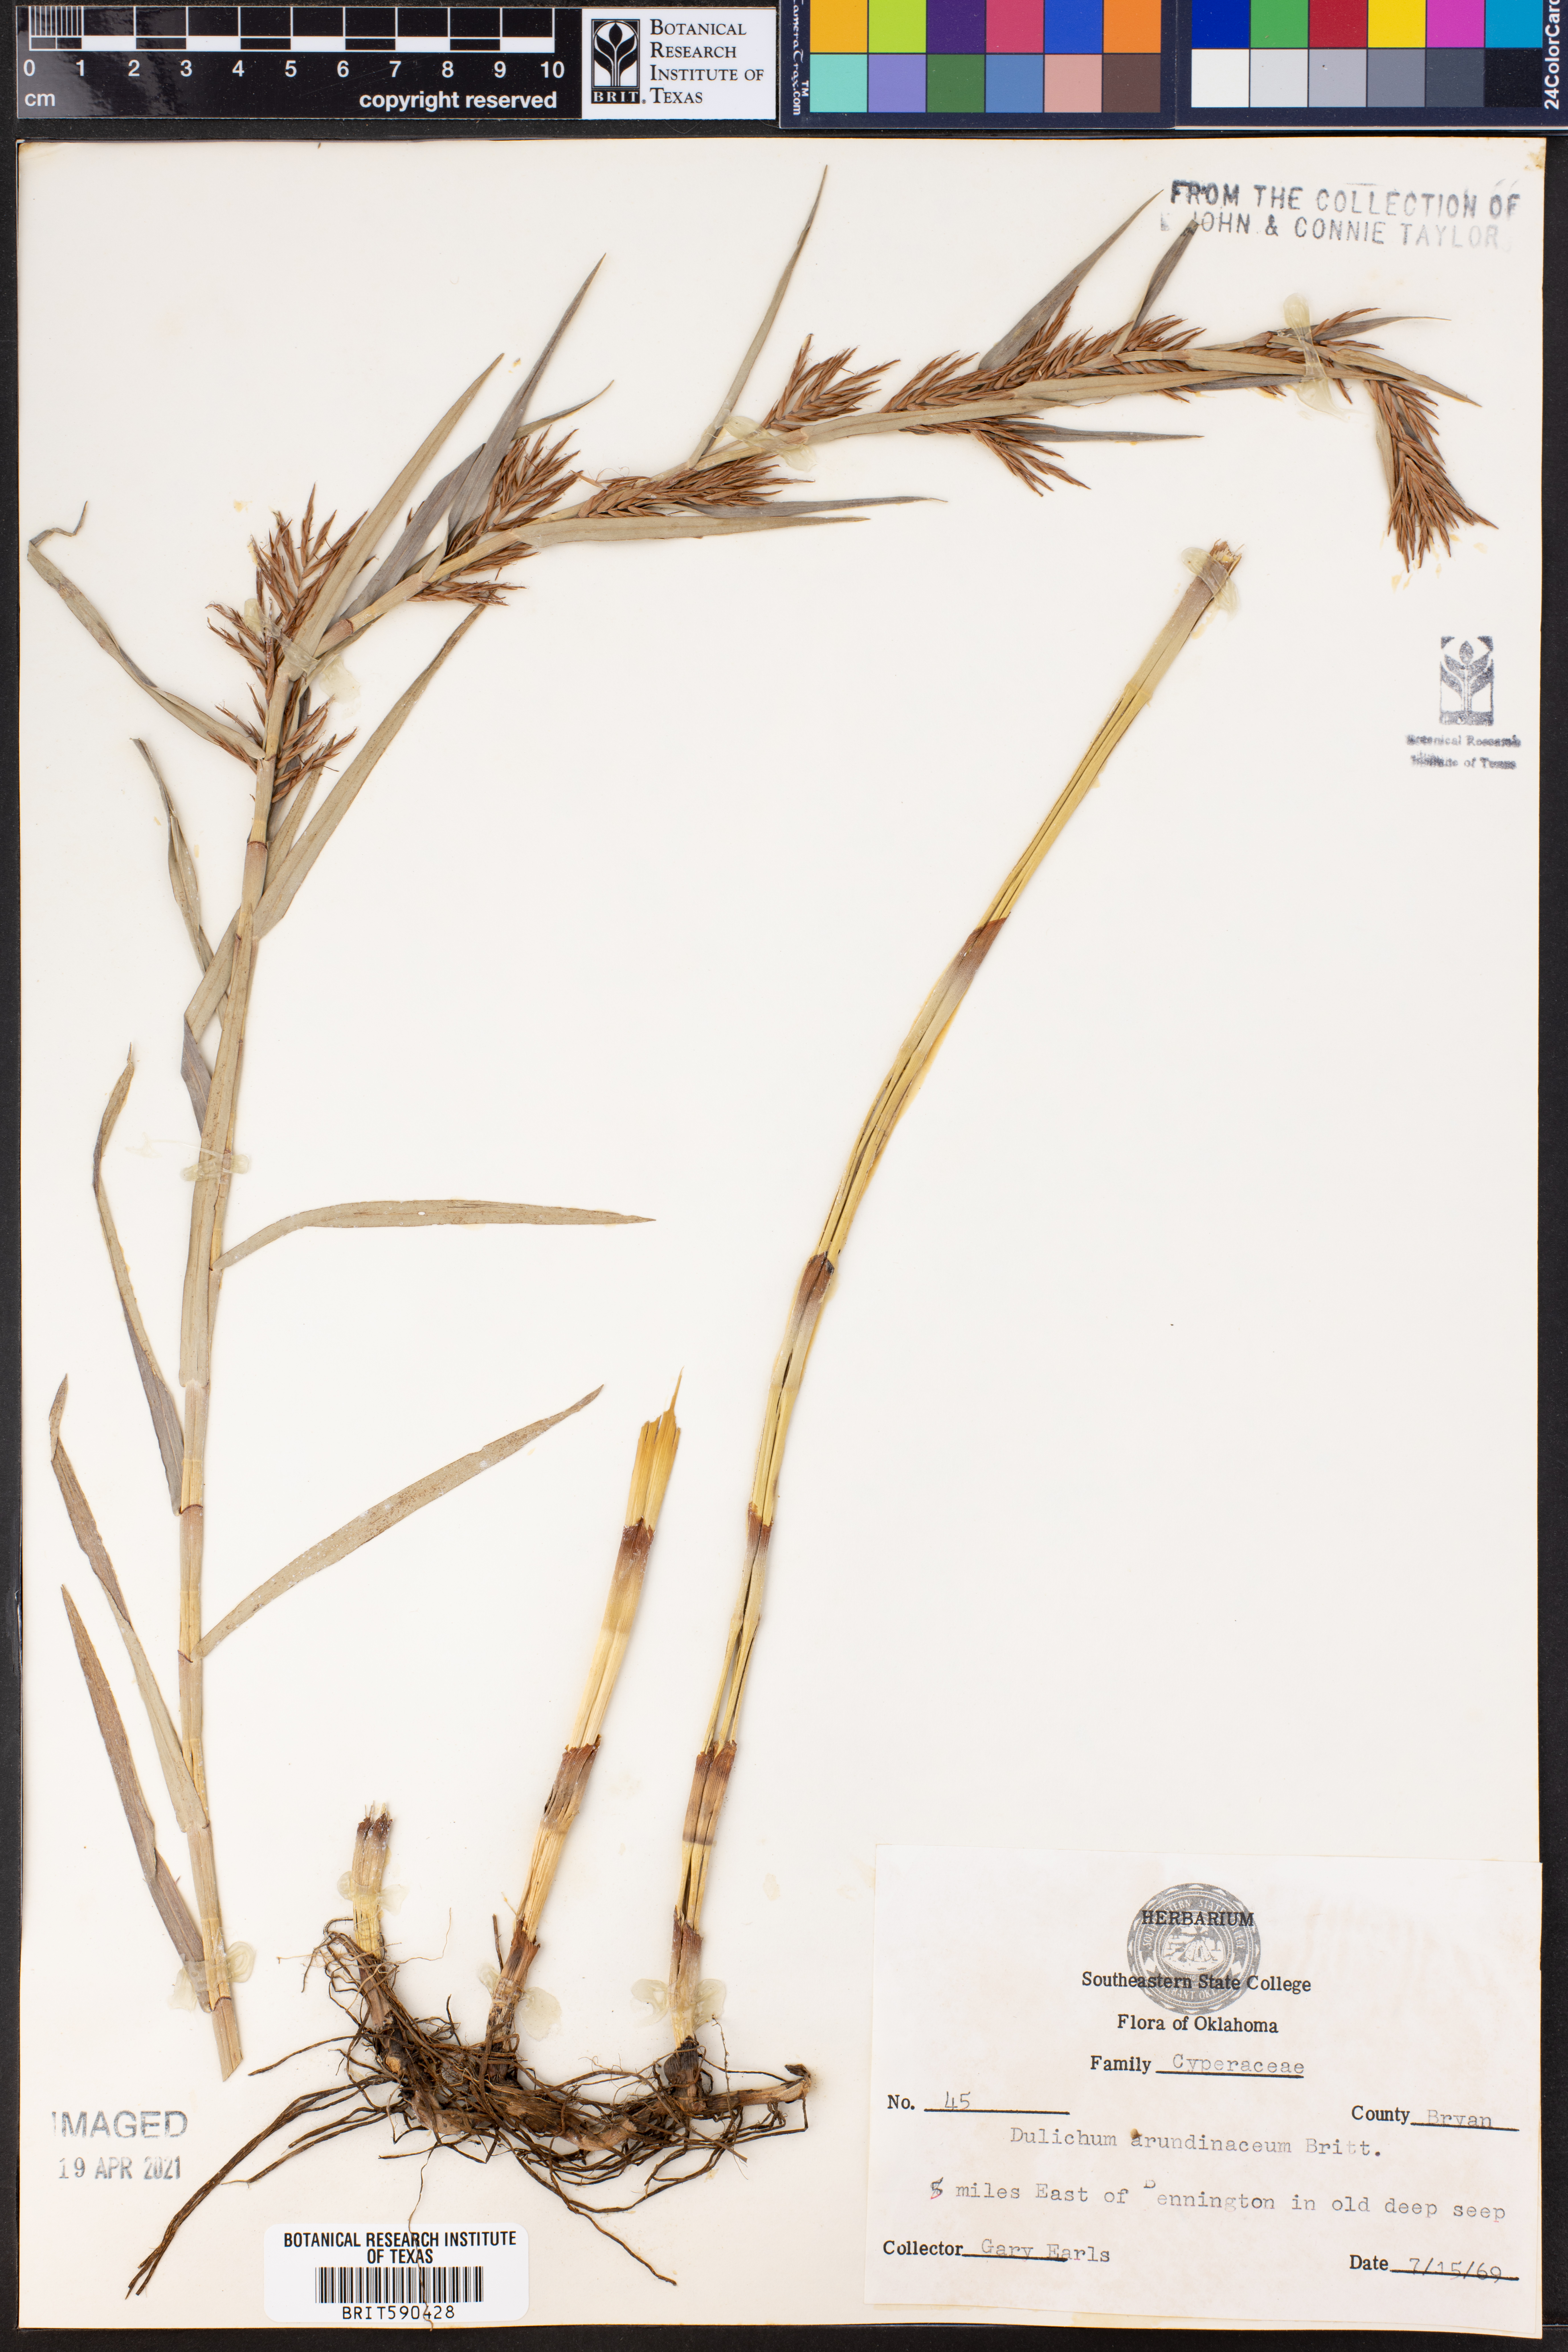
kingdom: Plantae
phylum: Tracheophyta
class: Liliopsida
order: Poales
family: Cyperaceae
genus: Dulichium
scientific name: Dulichium arundinaceum
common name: Three-way sedge
